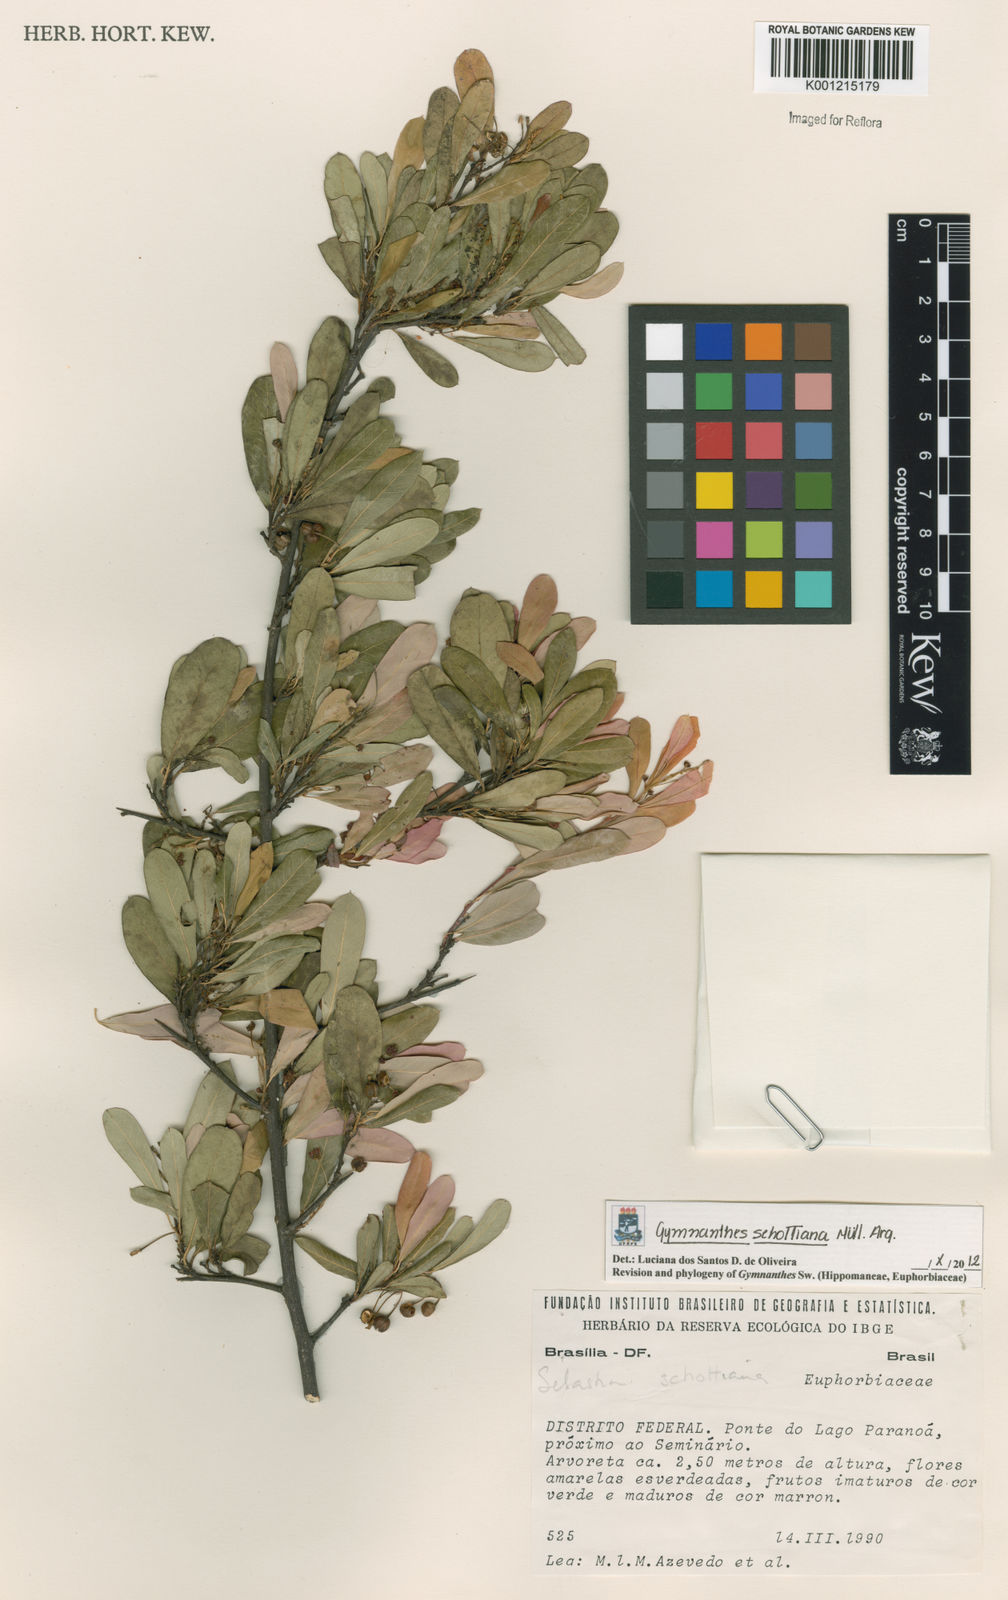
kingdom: Plantae
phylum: Tracheophyta
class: Magnoliopsida
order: Malpighiales
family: Euphorbiaceae
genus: Gymnanthes
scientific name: Gymnanthes
